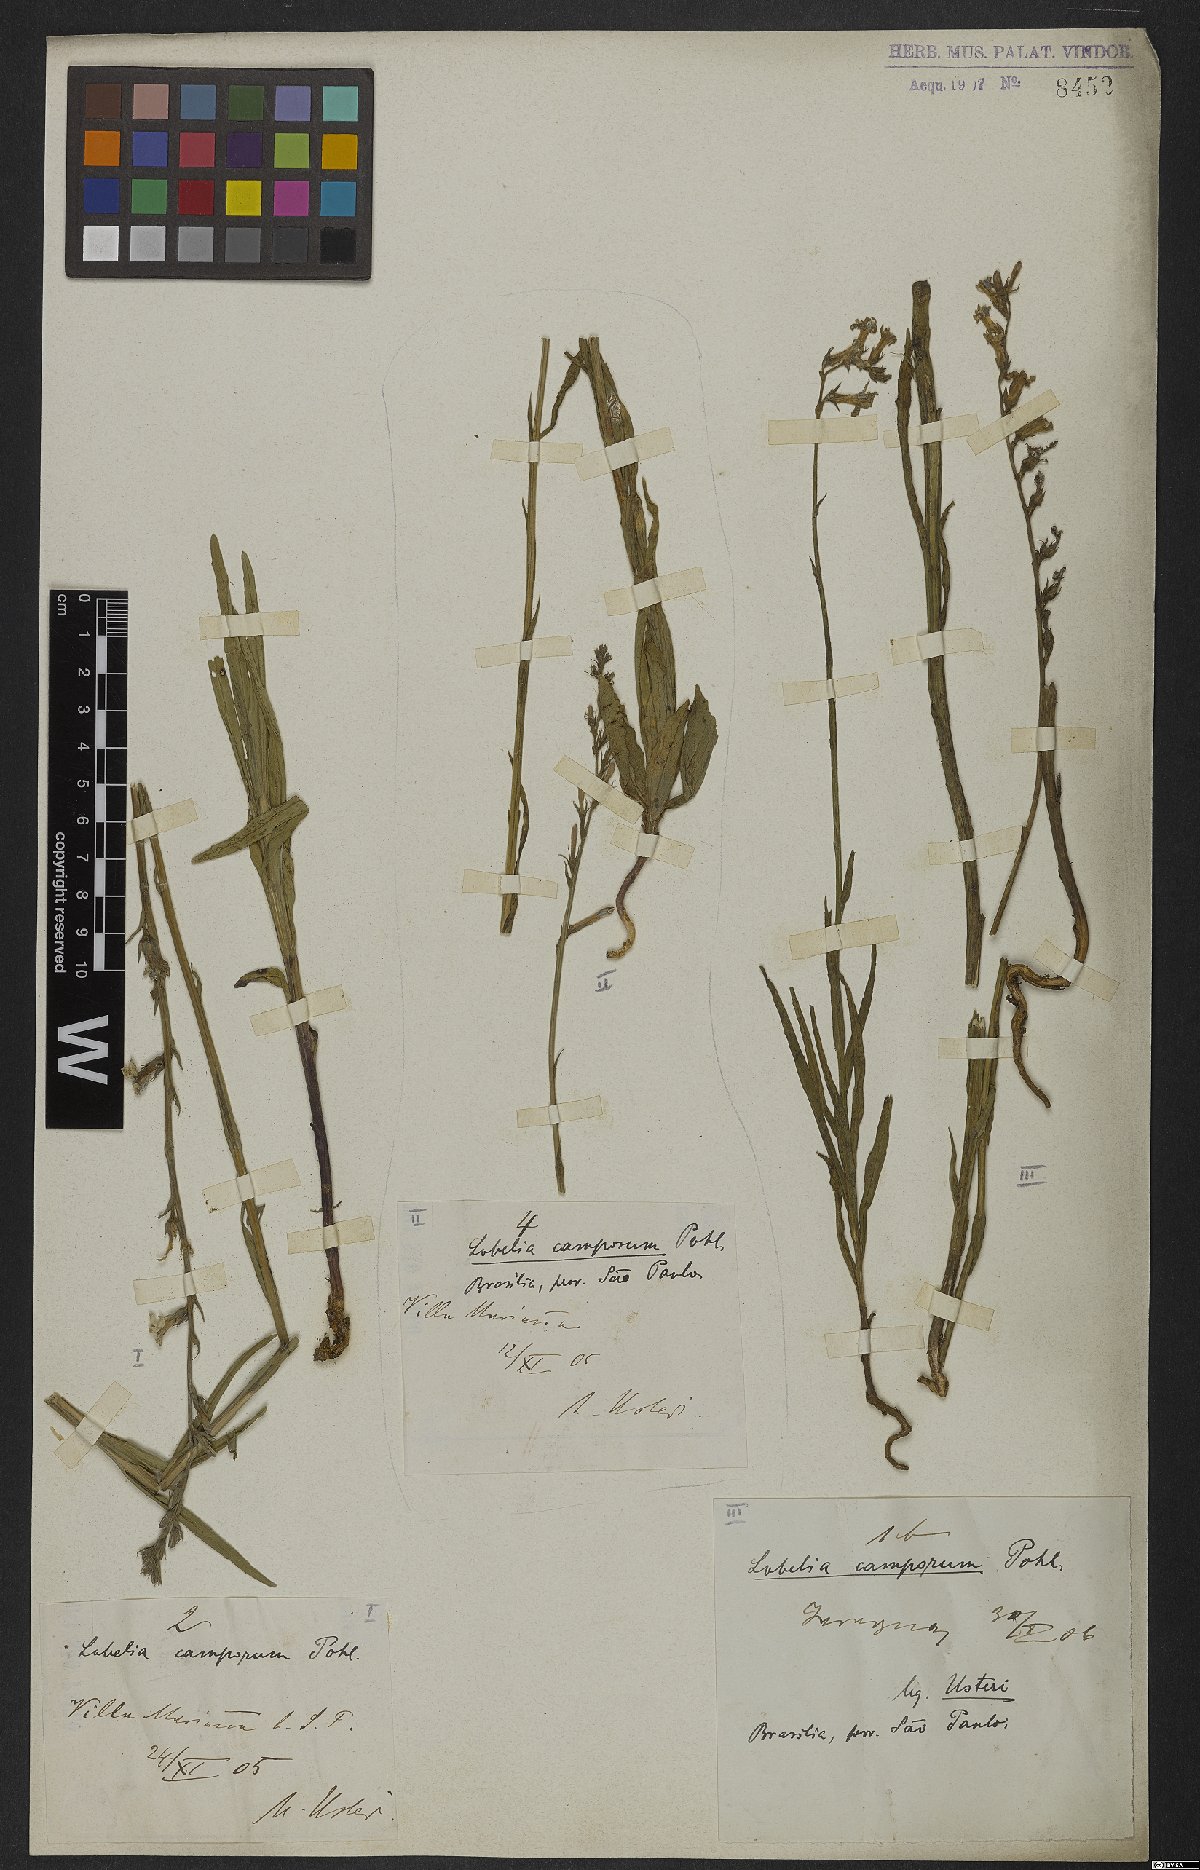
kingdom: Plantae
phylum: Tracheophyta
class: Magnoliopsida
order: Asterales
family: Campanulaceae
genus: Lobelia
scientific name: Lobelia camporum
